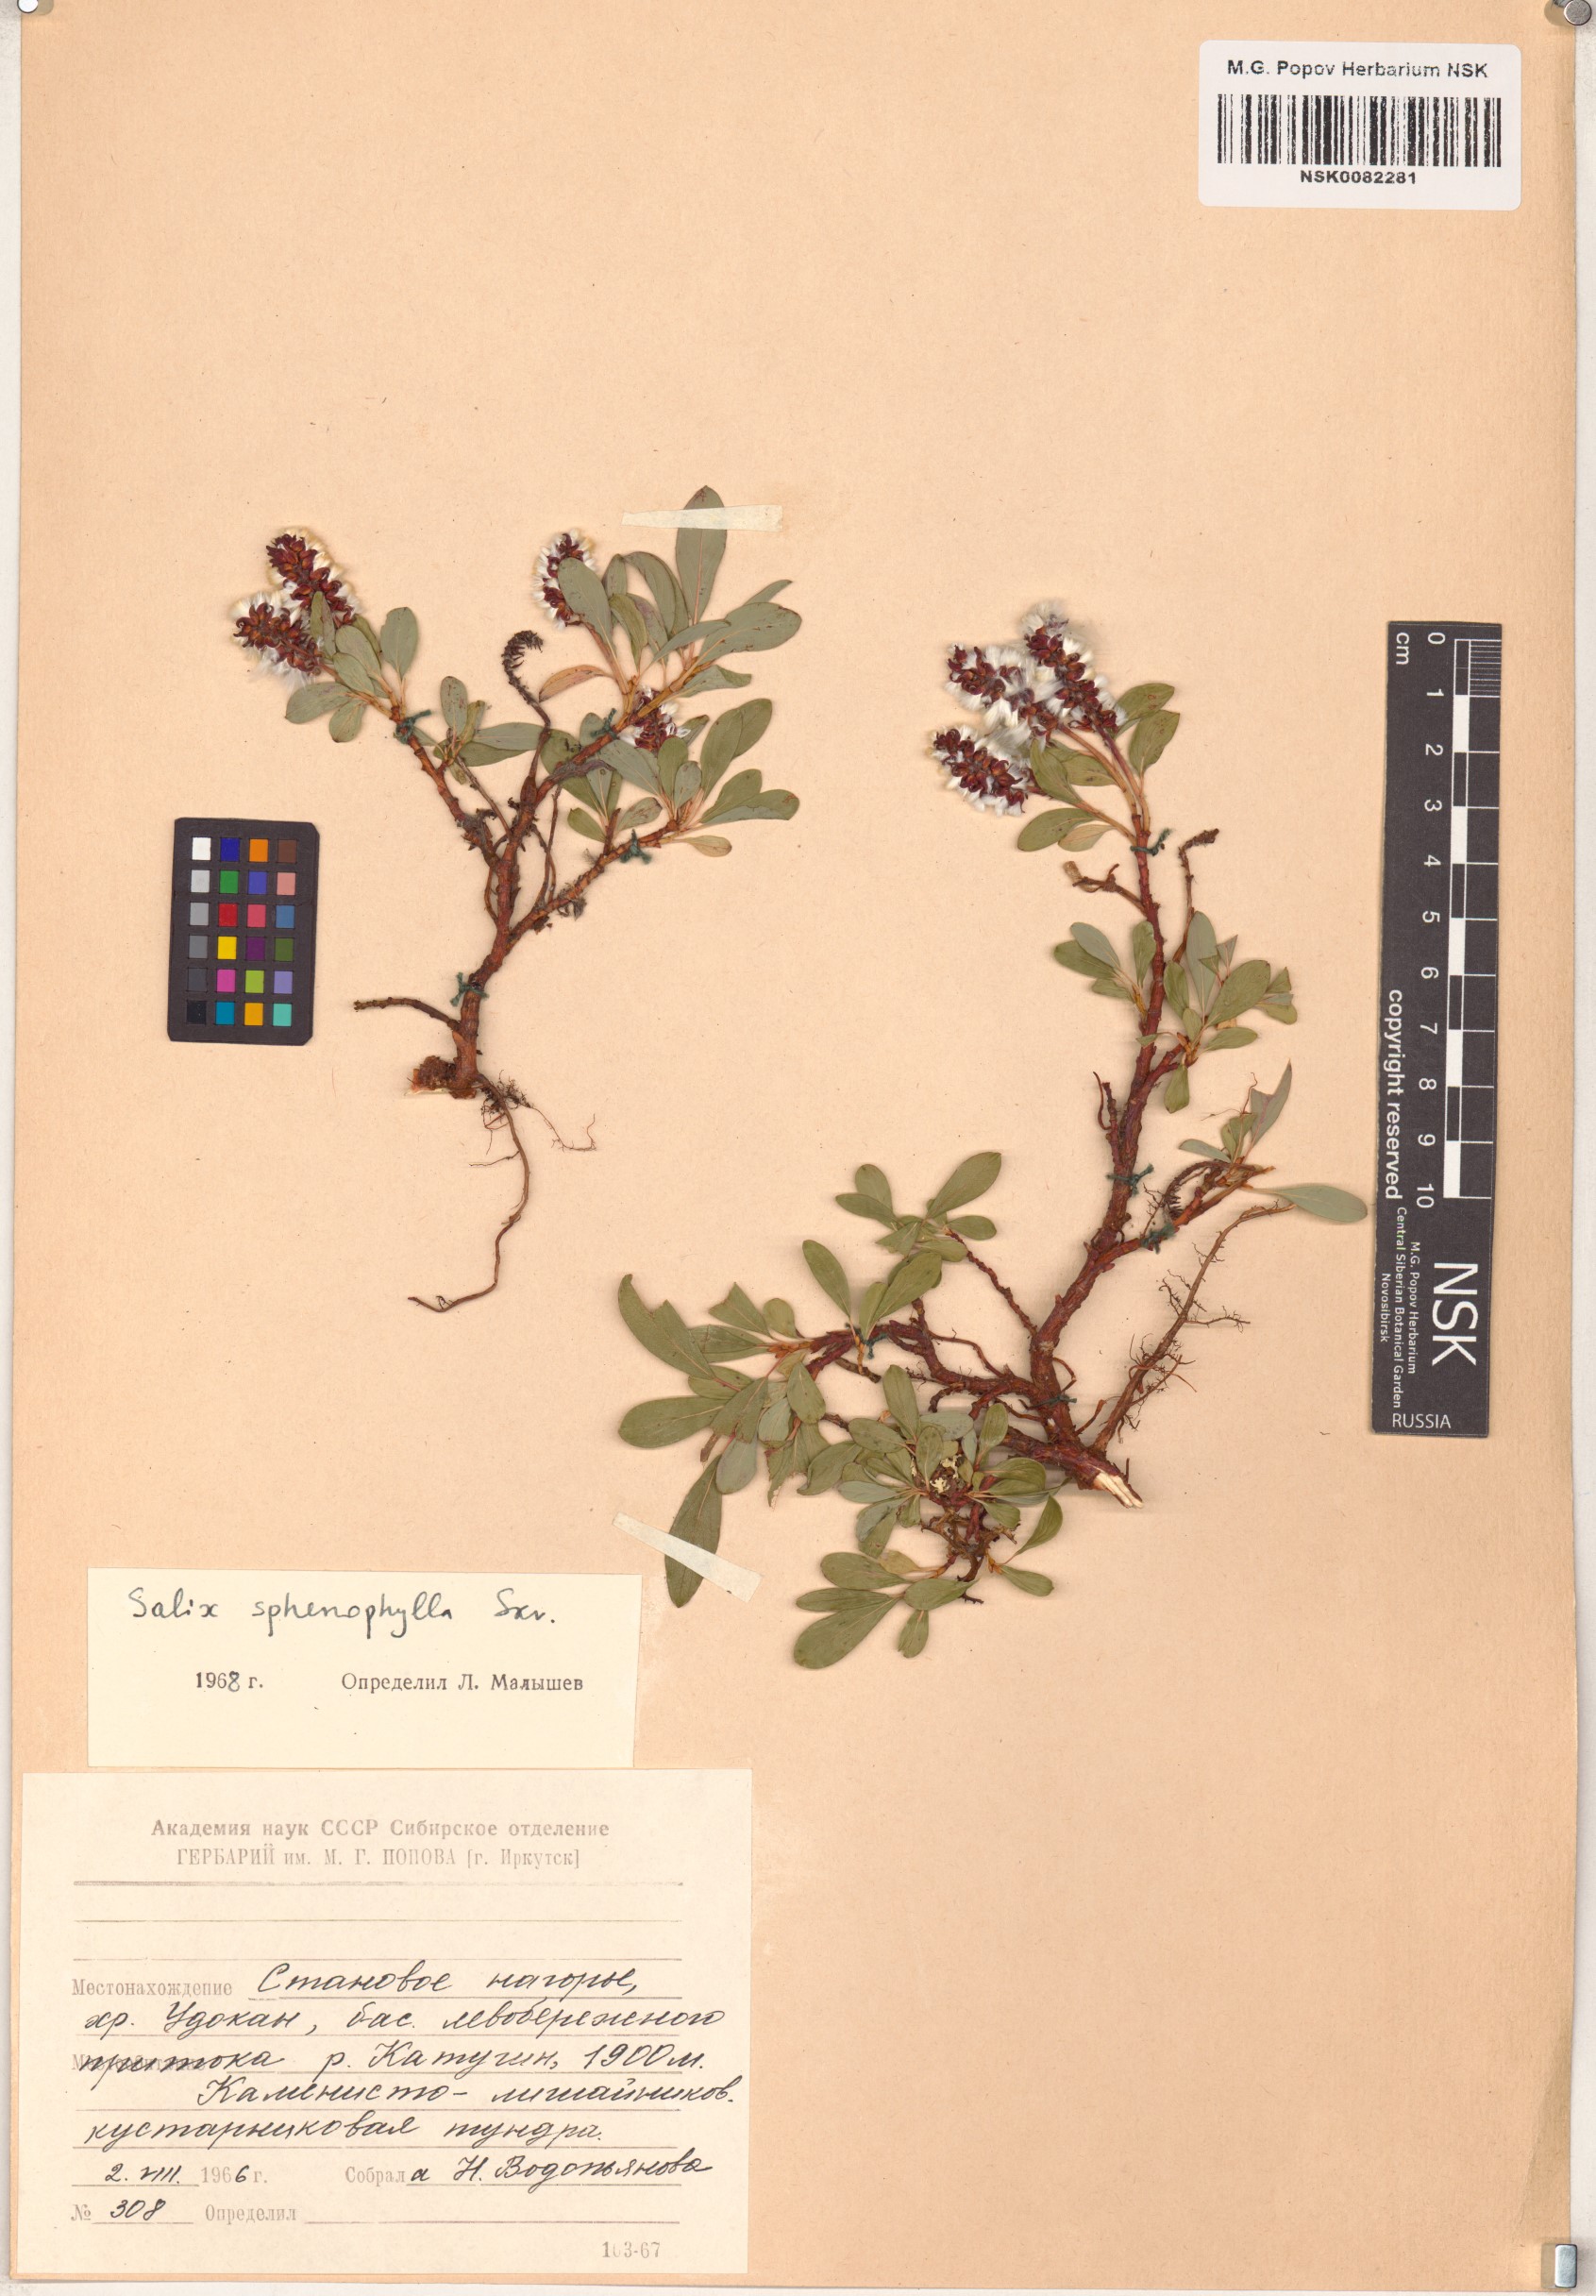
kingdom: Plantae
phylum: Tracheophyta
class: Magnoliopsida
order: Malpighiales
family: Salicaceae
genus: Salix
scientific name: Salix sphenophylla
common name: Wedge-leaved willow
